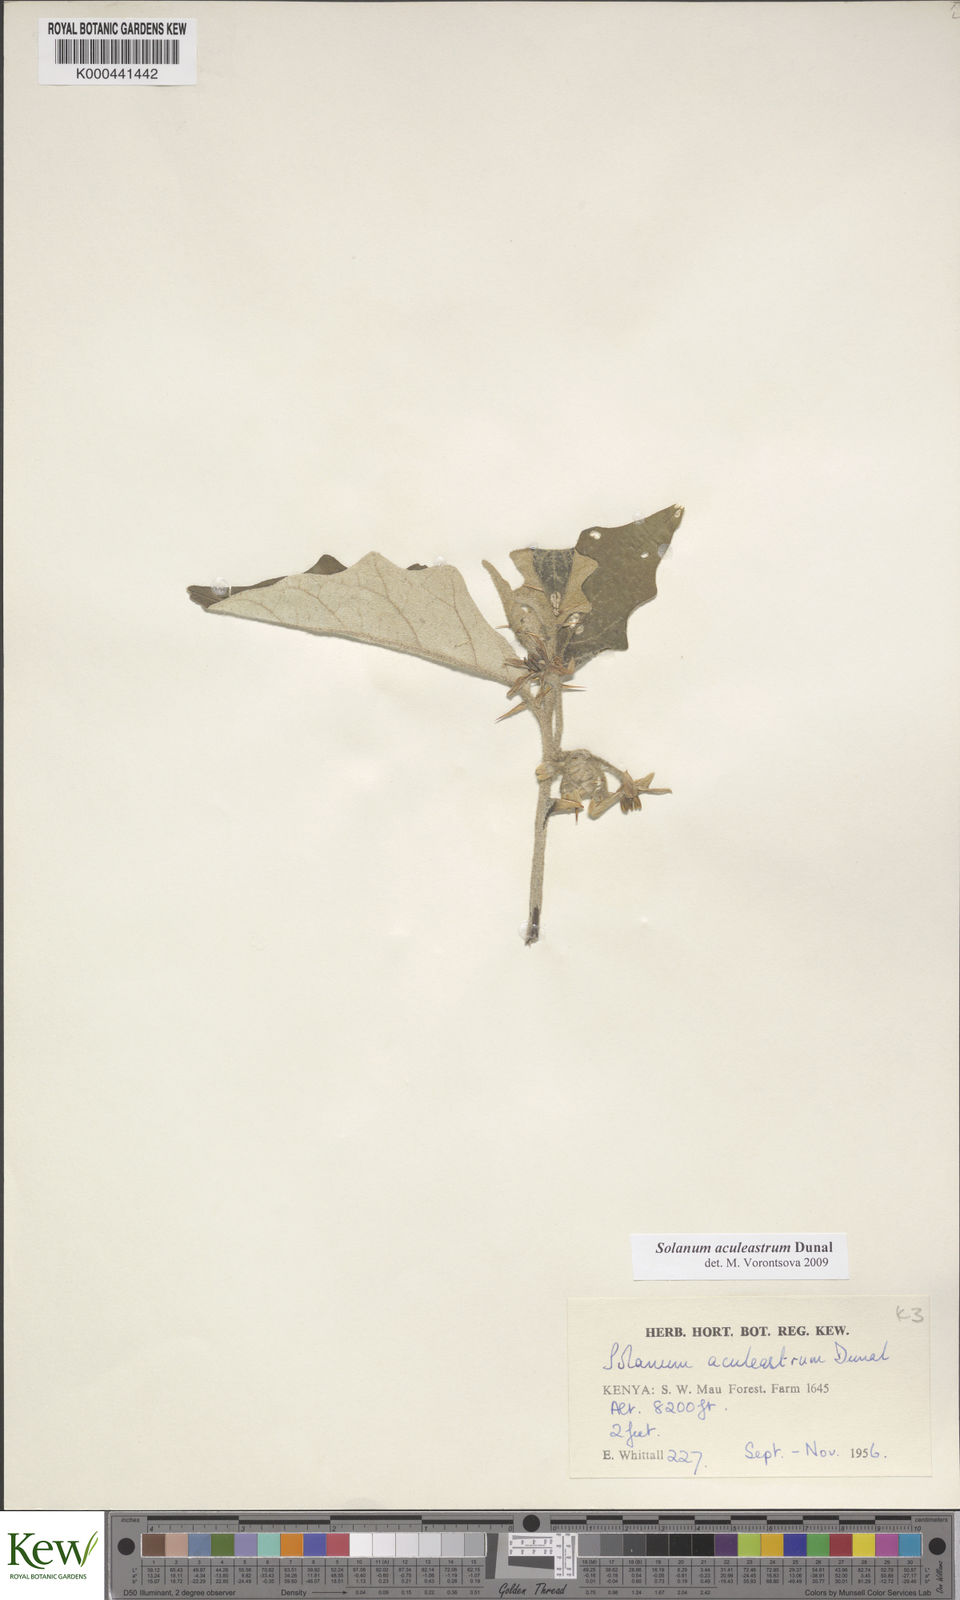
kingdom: Plantae
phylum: Tracheophyta
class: Magnoliopsida
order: Solanales
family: Solanaceae
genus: Solanum
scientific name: Solanum aculeastrum
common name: Goat bitter-apple
